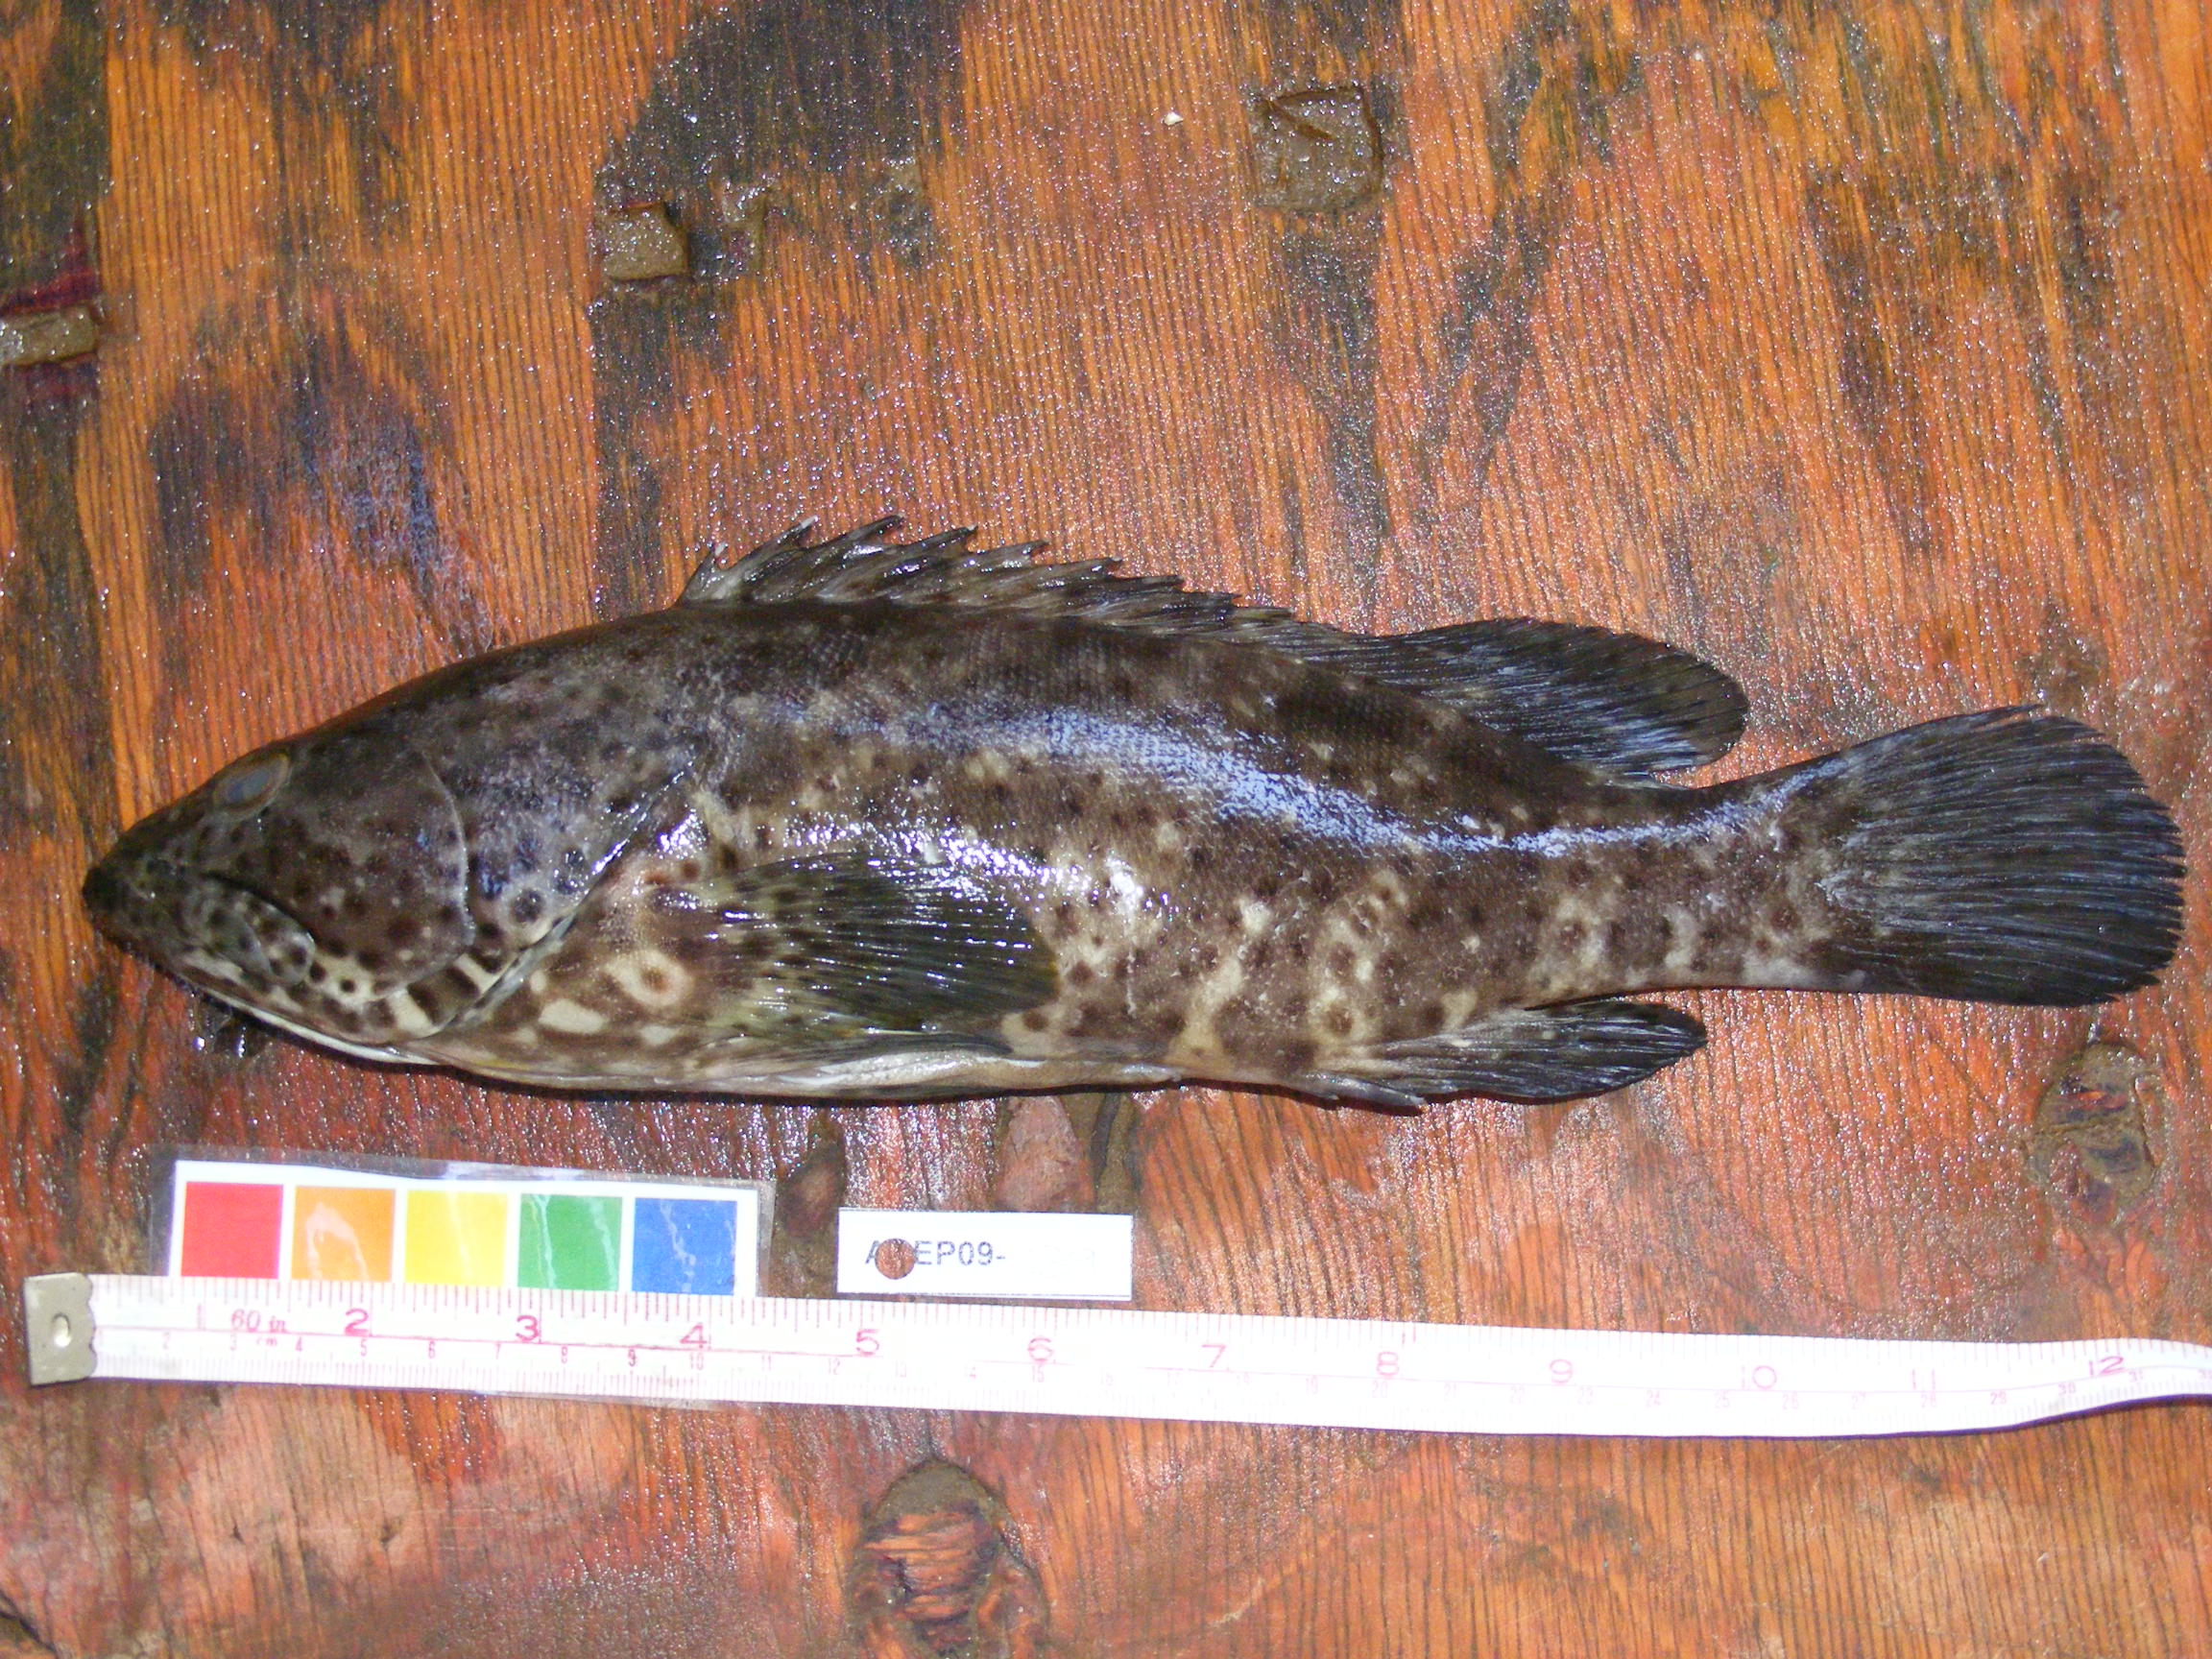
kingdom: Animalia
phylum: Chordata
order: Perciformes
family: Serranidae
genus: Epinephelus
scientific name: Epinephelus malabaricus
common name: Malabar grouper
